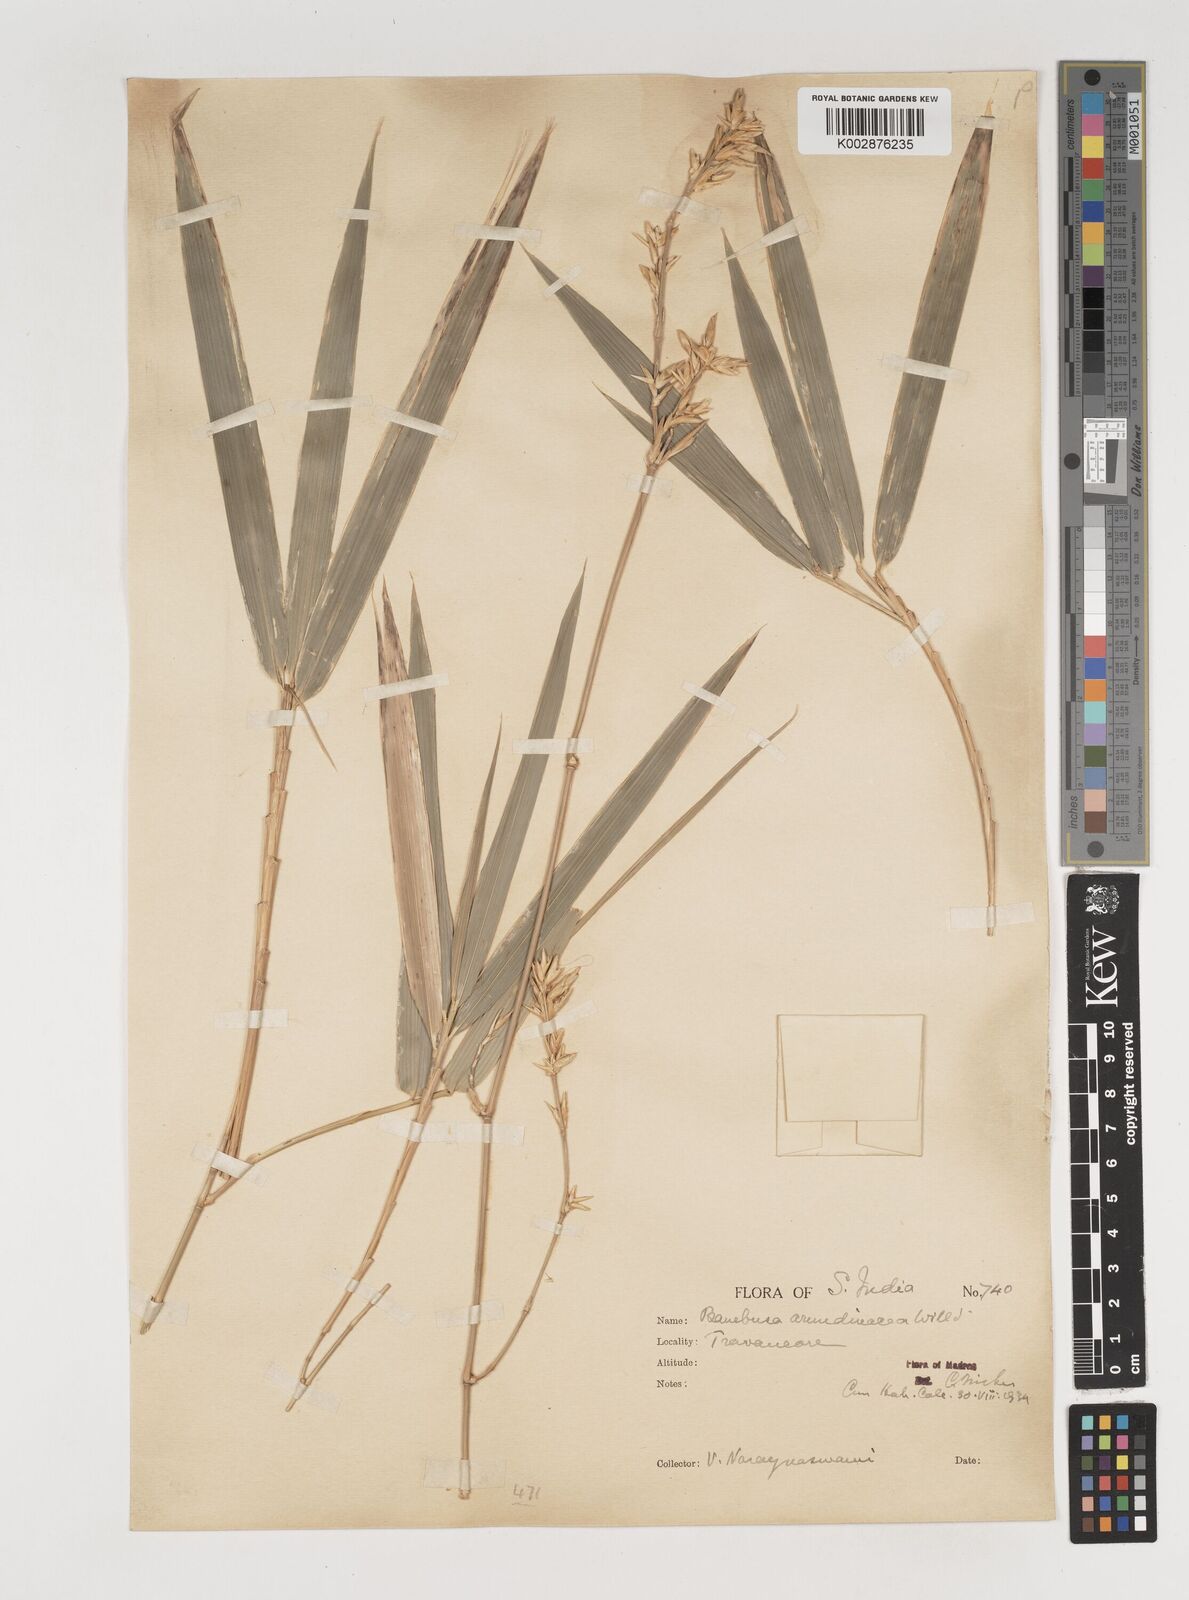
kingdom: Plantae
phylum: Tracheophyta
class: Liliopsida
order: Poales
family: Poaceae
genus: Bambusa
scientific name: Bambusa bambos
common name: Indian thorny bamboo
